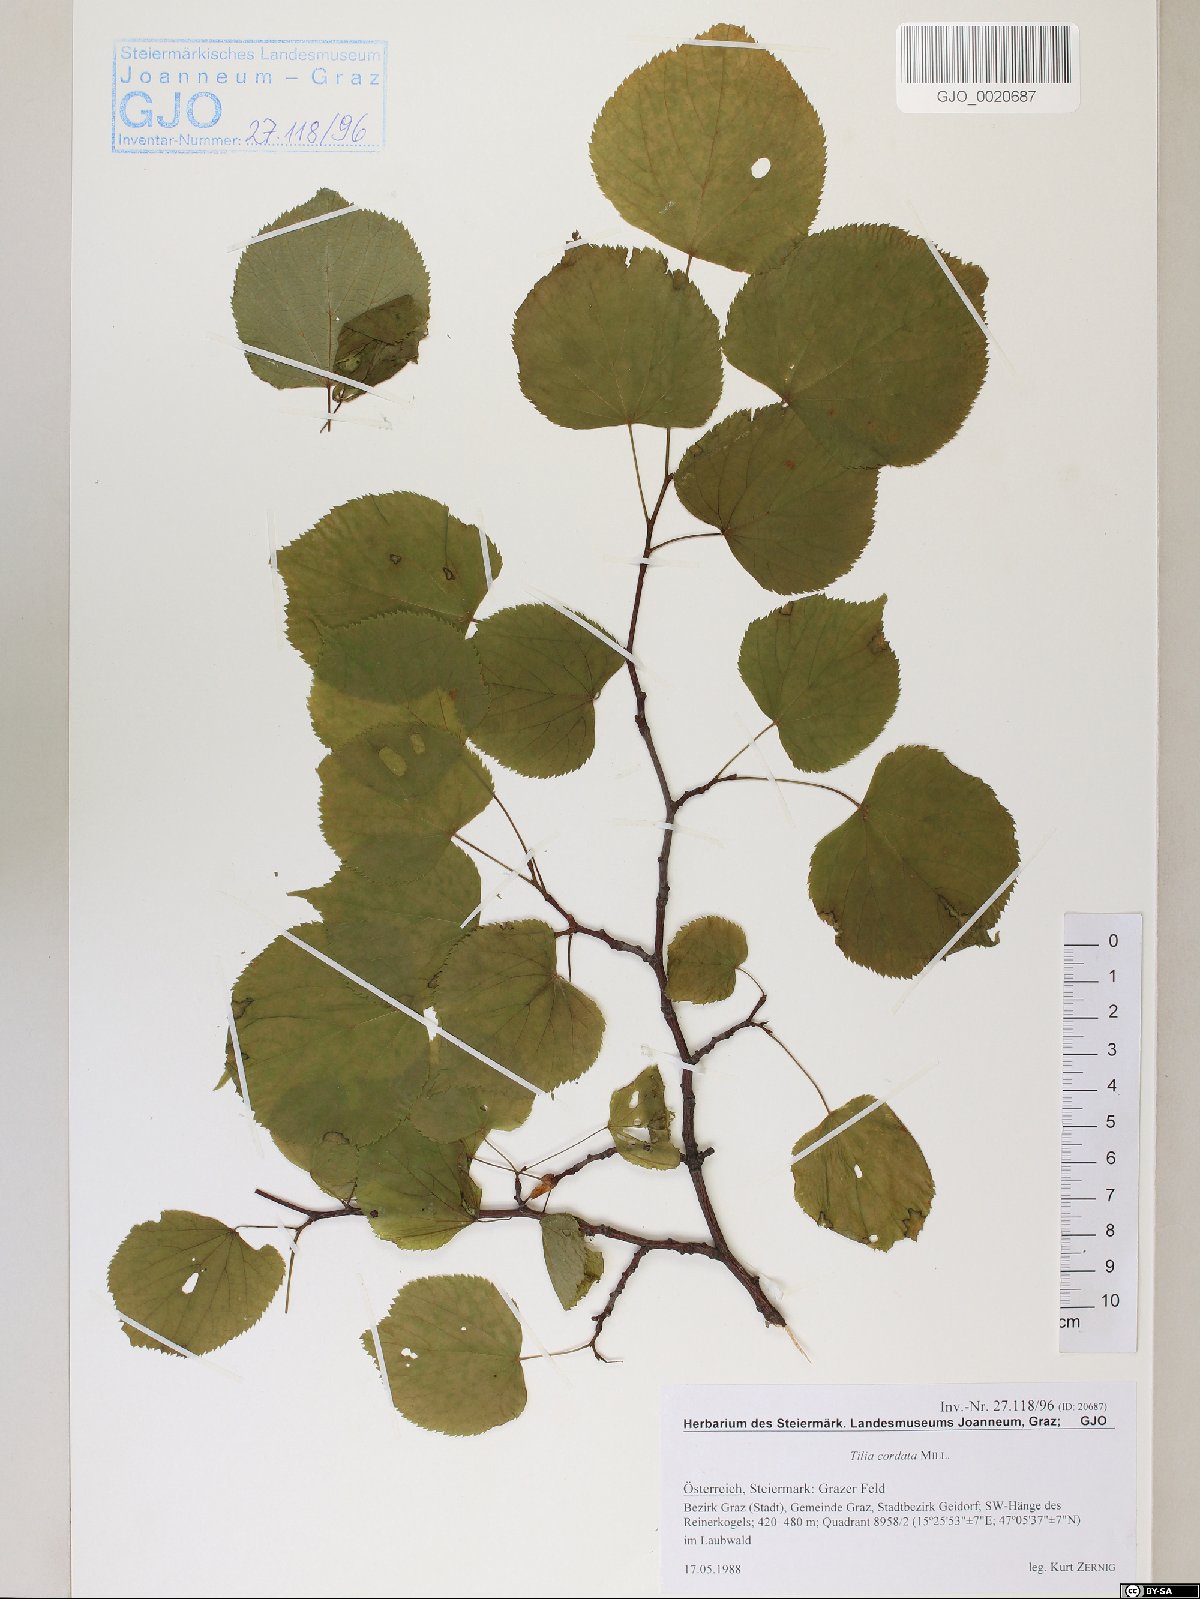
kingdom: Plantae
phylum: Tracheophyta
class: Magnoliopsida
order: Malvales
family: Malvaceae
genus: Tilia
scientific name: Tilia cordata
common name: Small-leaved lime
